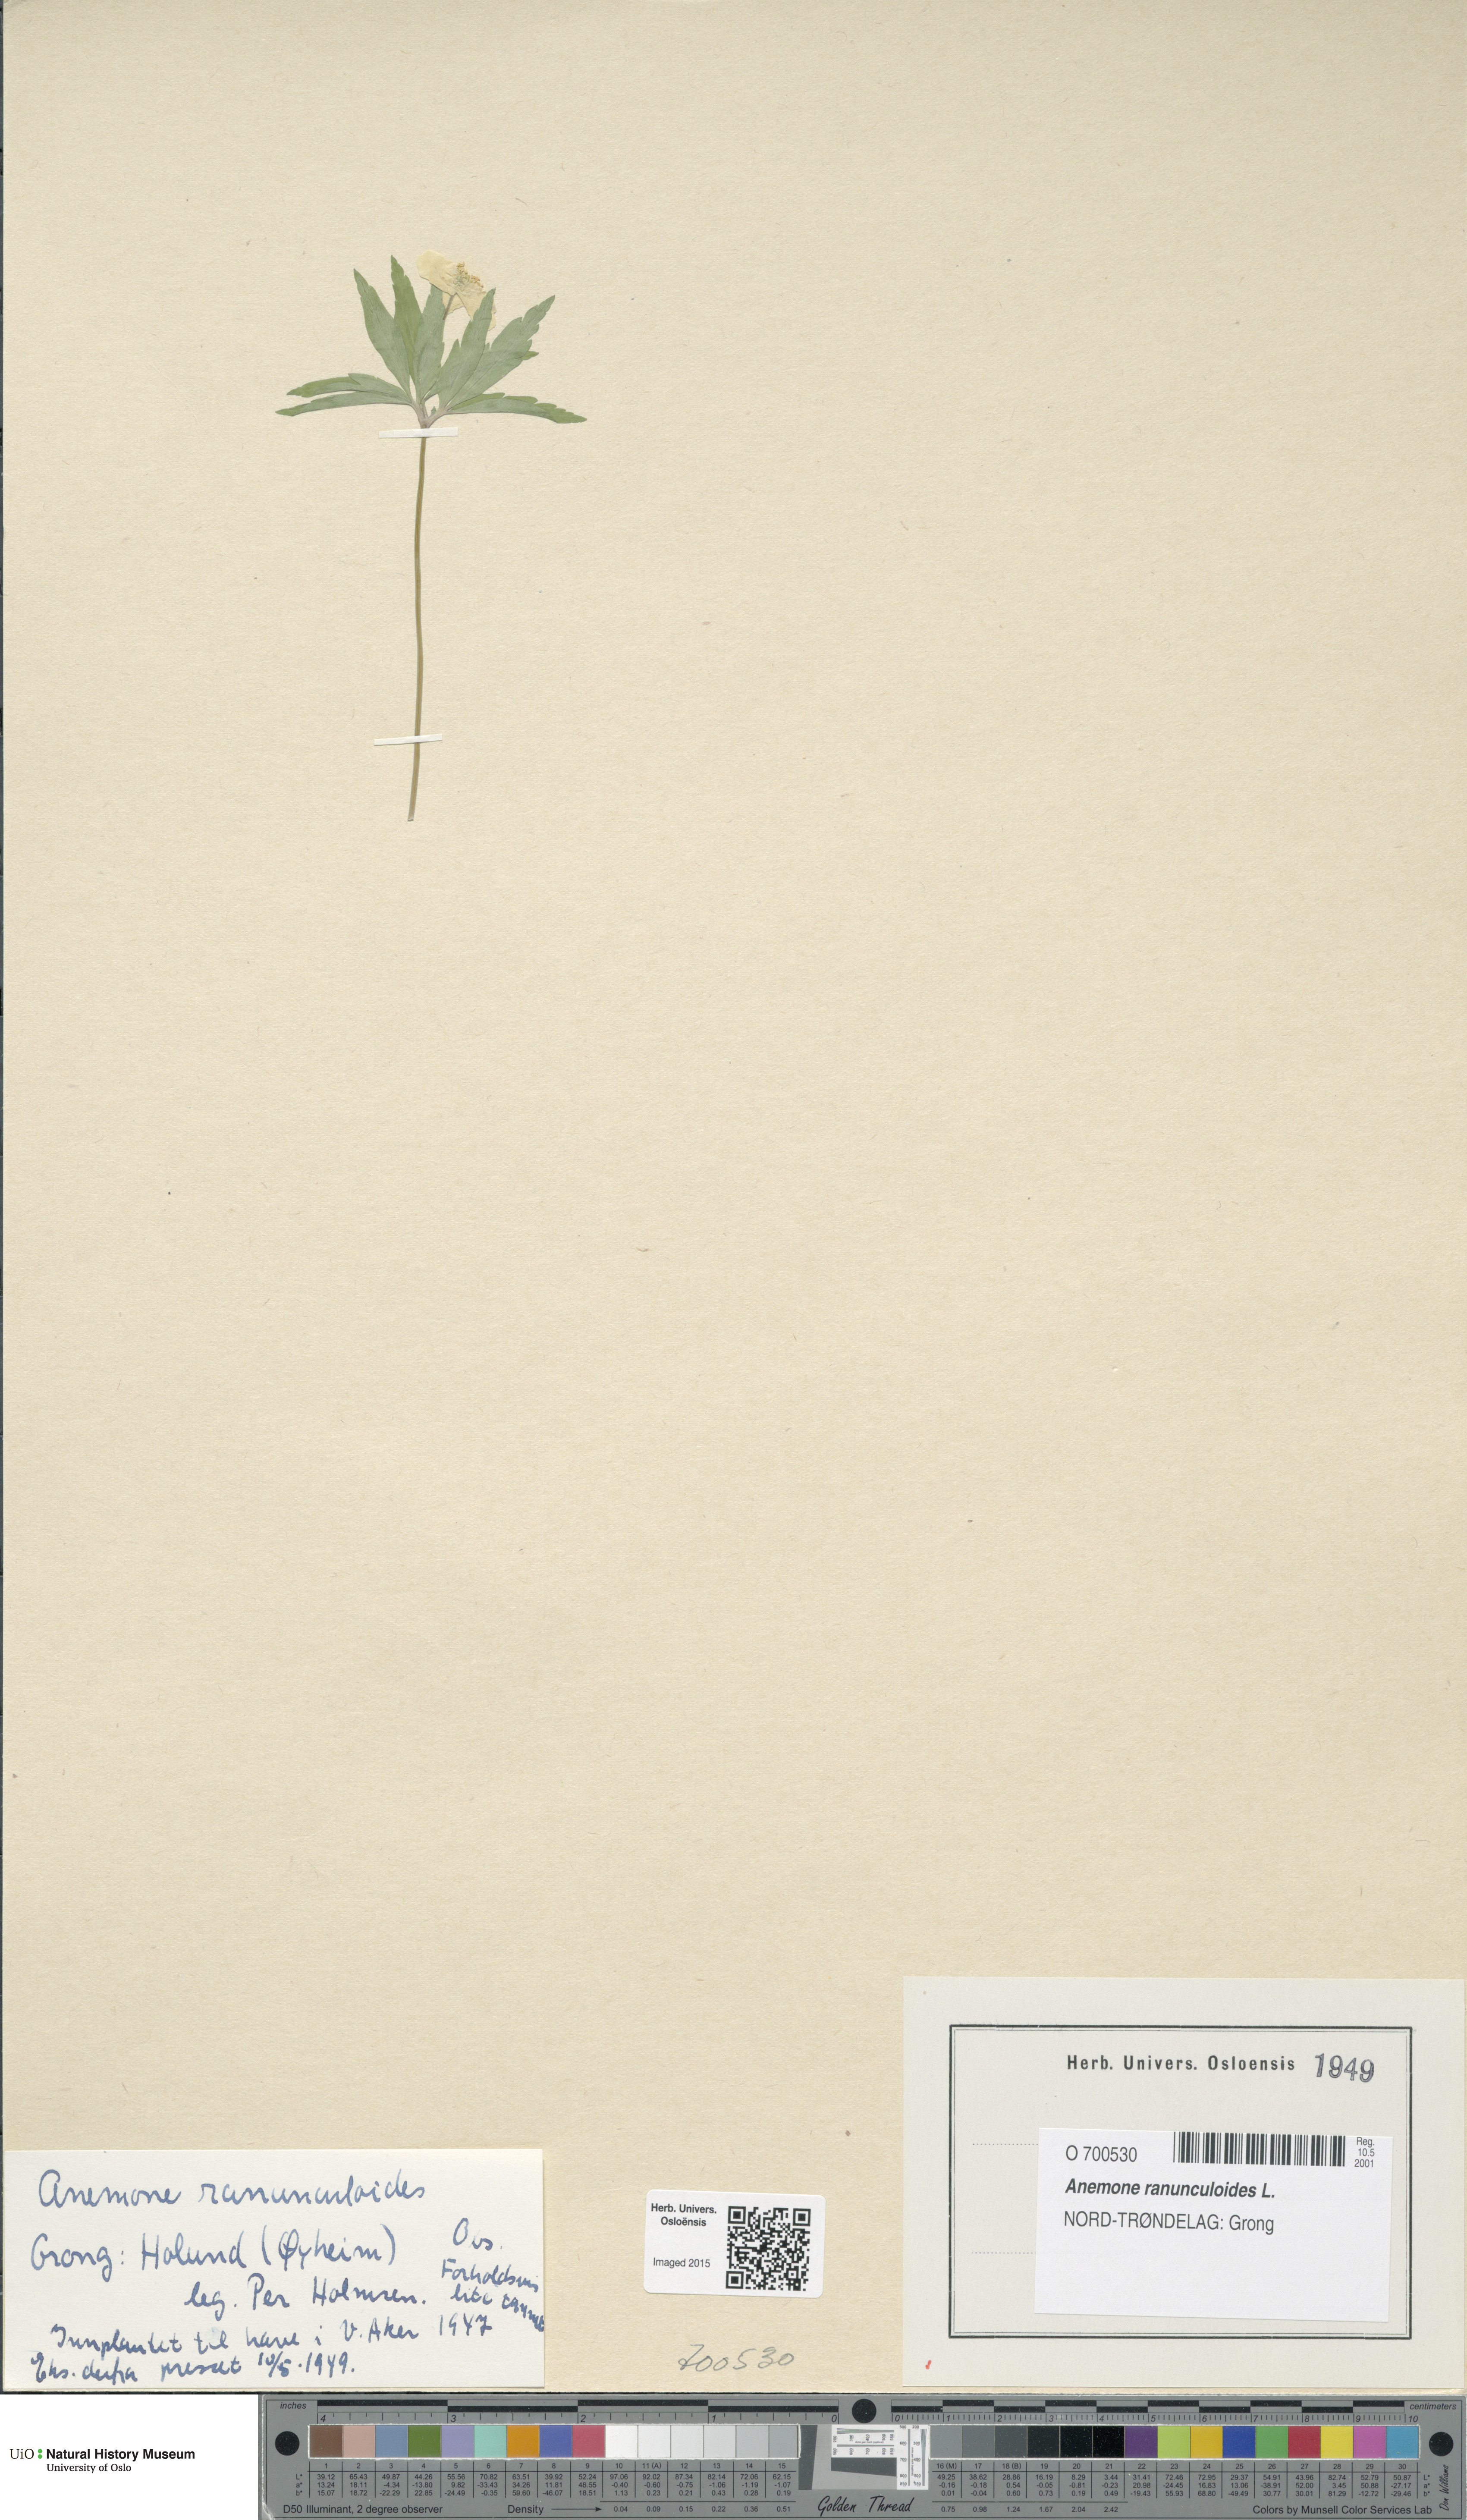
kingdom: Plantae
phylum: Tracheophyta
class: Magnoliopsida
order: Ranunculales
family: Ranunculaceae
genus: Anemone
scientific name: Anemone ranunculoides
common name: Yellow anemone
